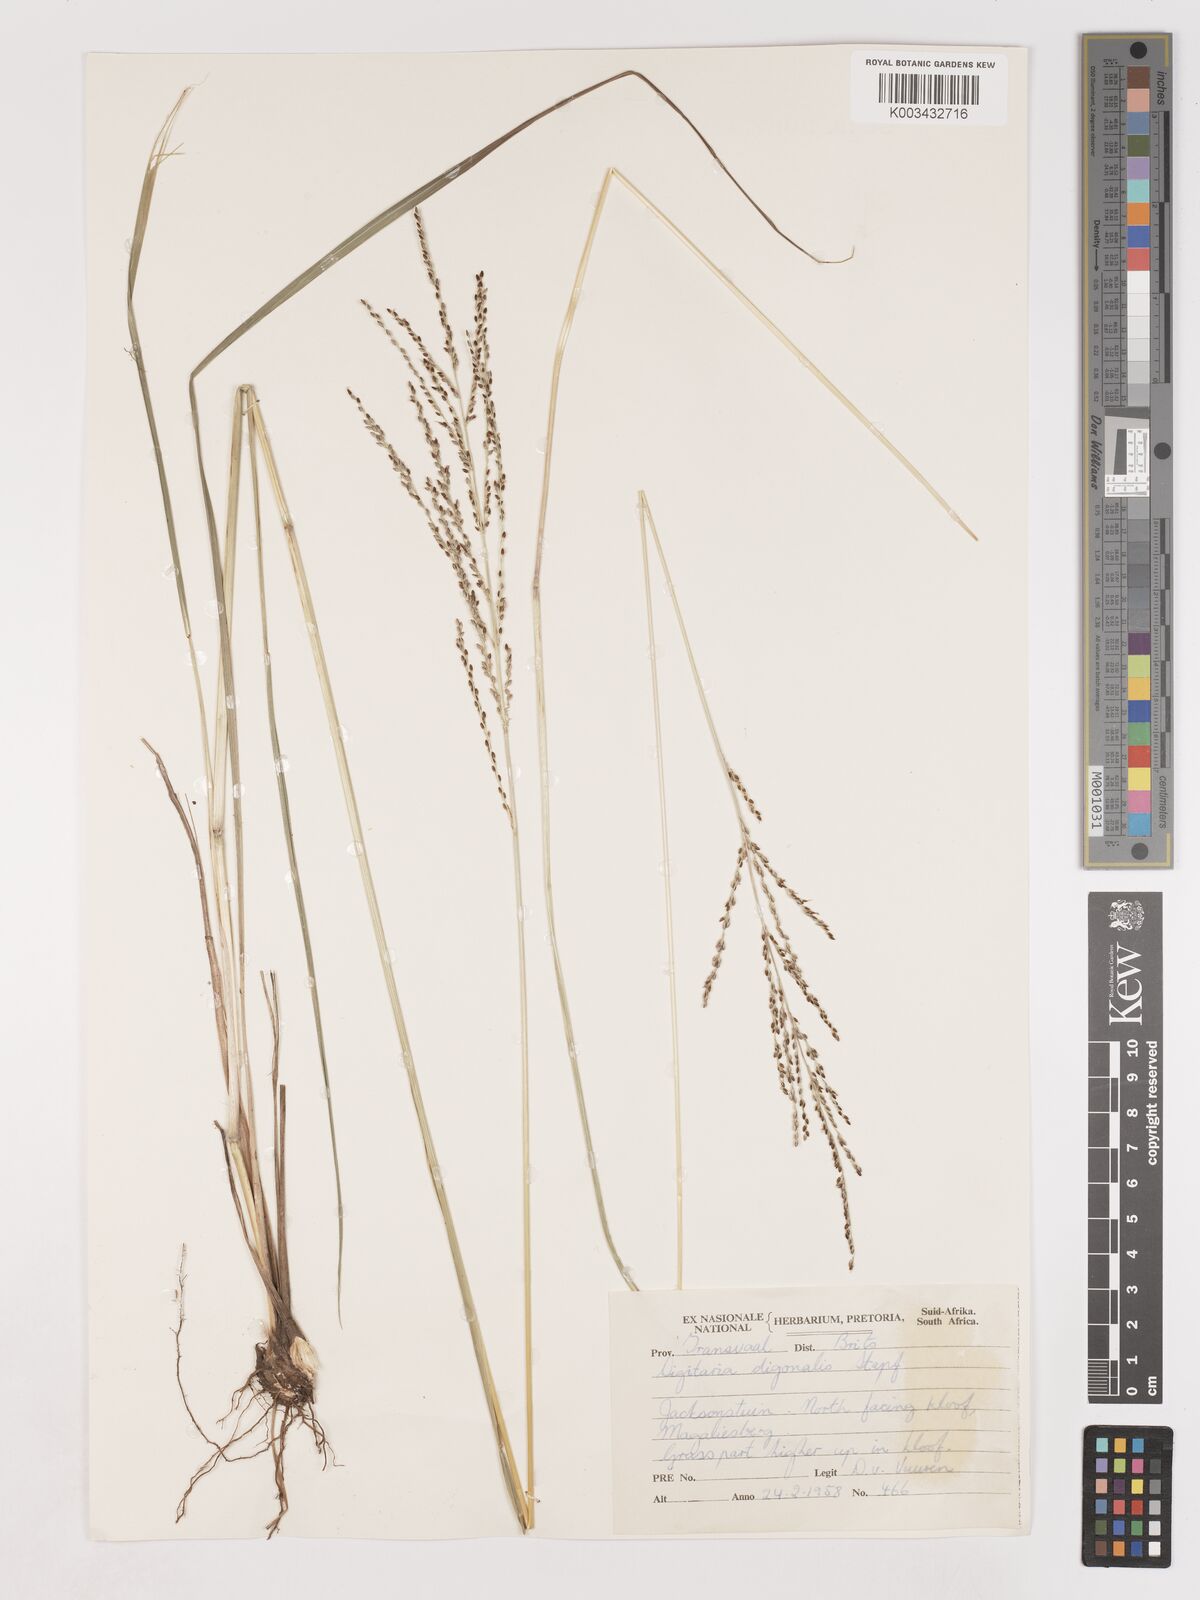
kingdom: Plantae
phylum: Tracheophyta
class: Liliopsida
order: Poales
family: Poaceae
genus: Digitaria
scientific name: Digitaria diagonalis
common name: Brown-seed finger grass
